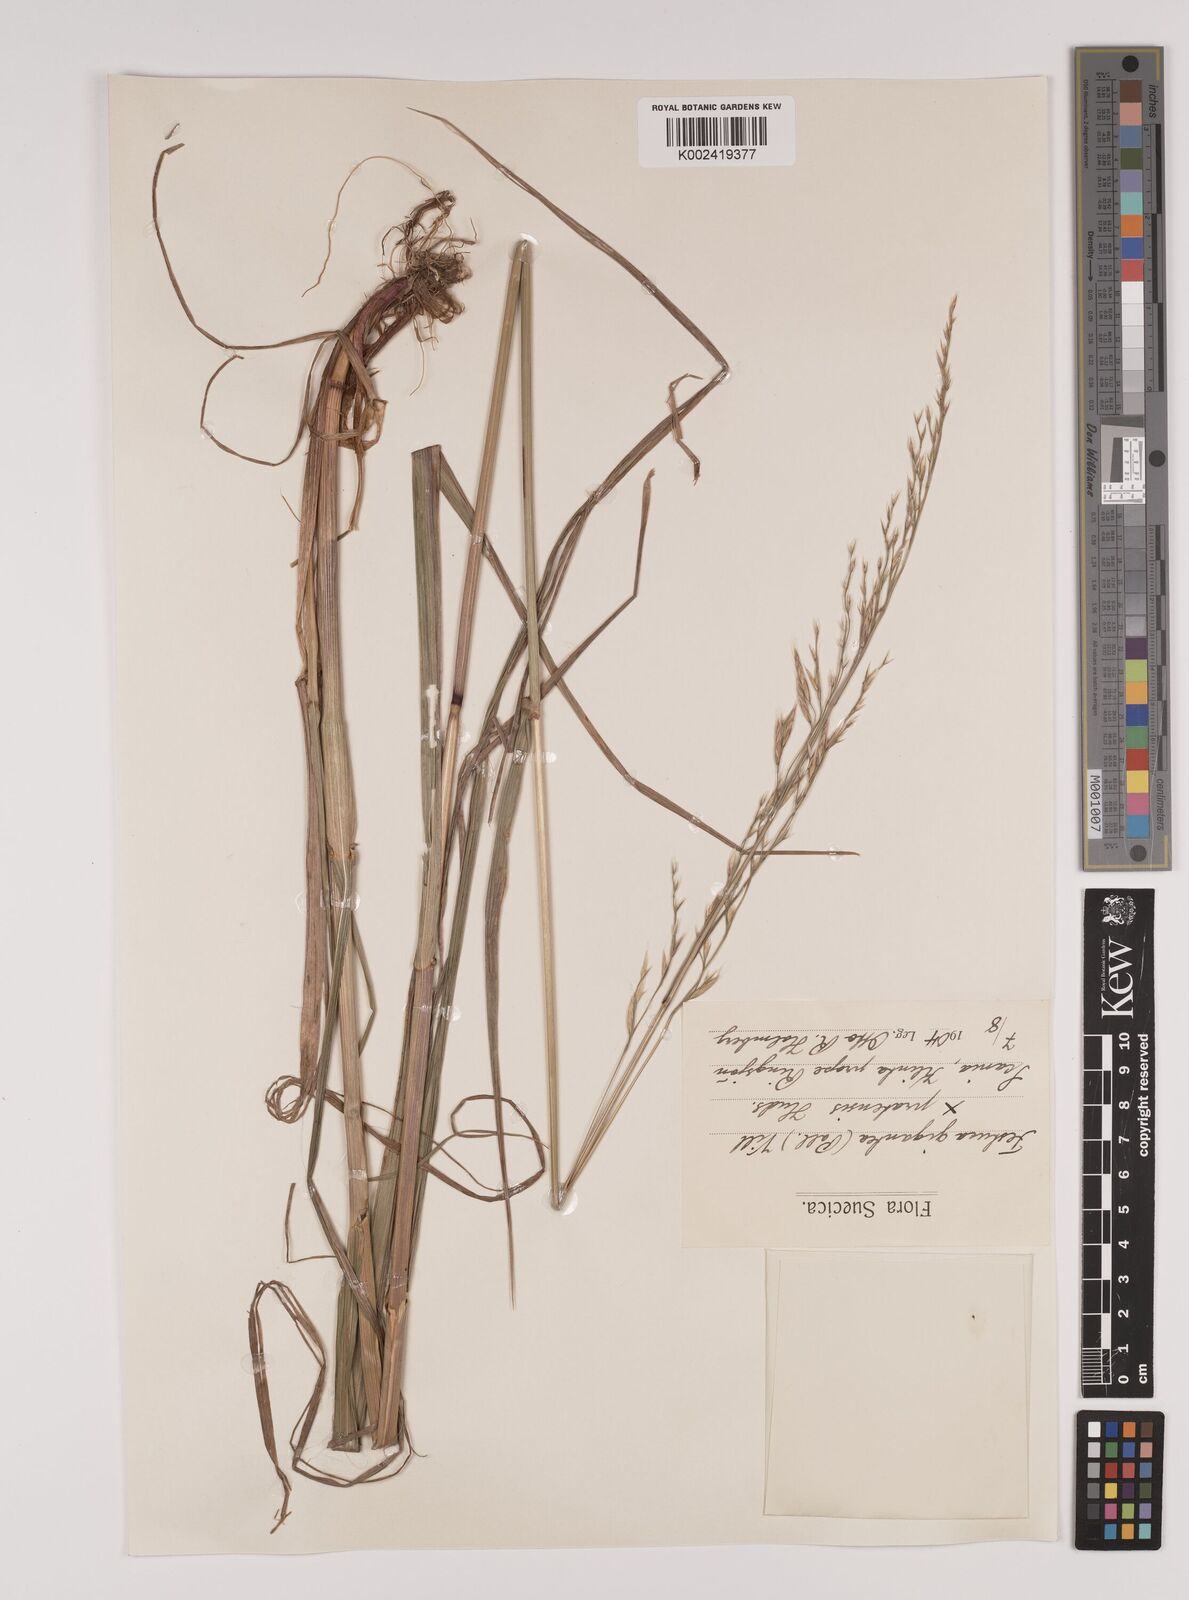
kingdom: Plantae
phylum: Tracheophyta
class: Liliopsida
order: Poales
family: Poaceae
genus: Lolium
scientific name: Lolium giganteum
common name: Giant fescue
